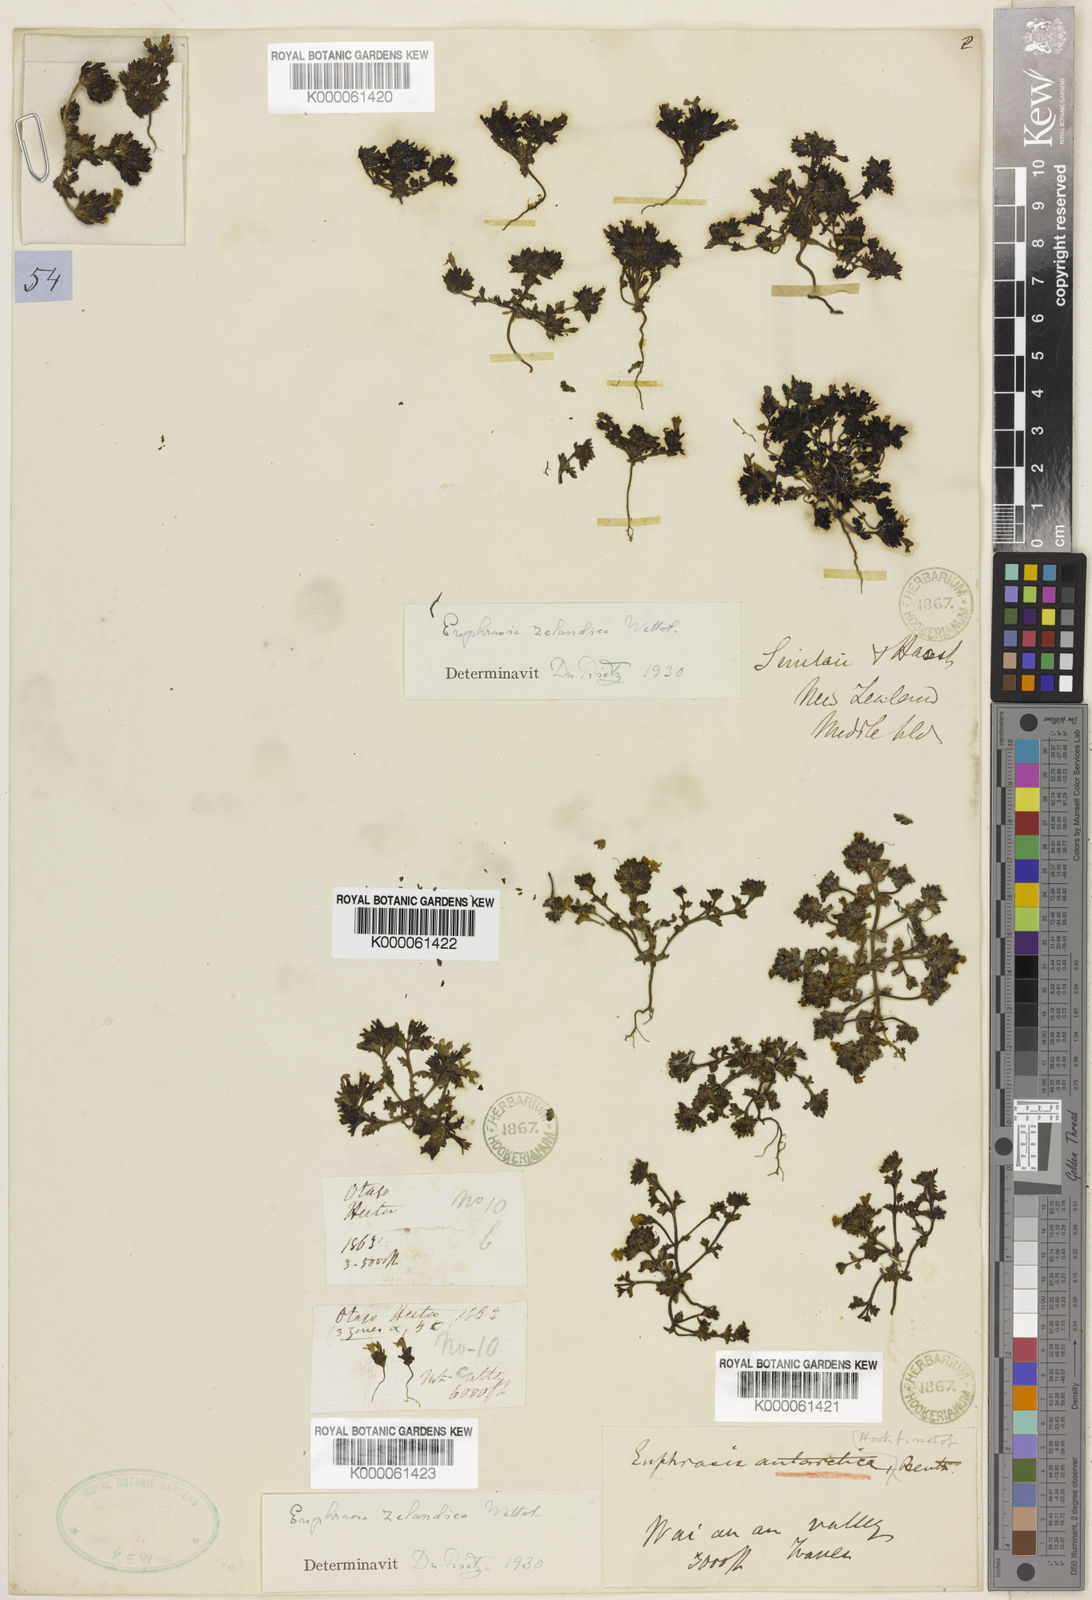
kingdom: Plantae
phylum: Tracheophyta
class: Magnoliopsida
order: Lamiales
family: Orobanchaceae
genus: Euphrasia
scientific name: Euphrasia zelandica
